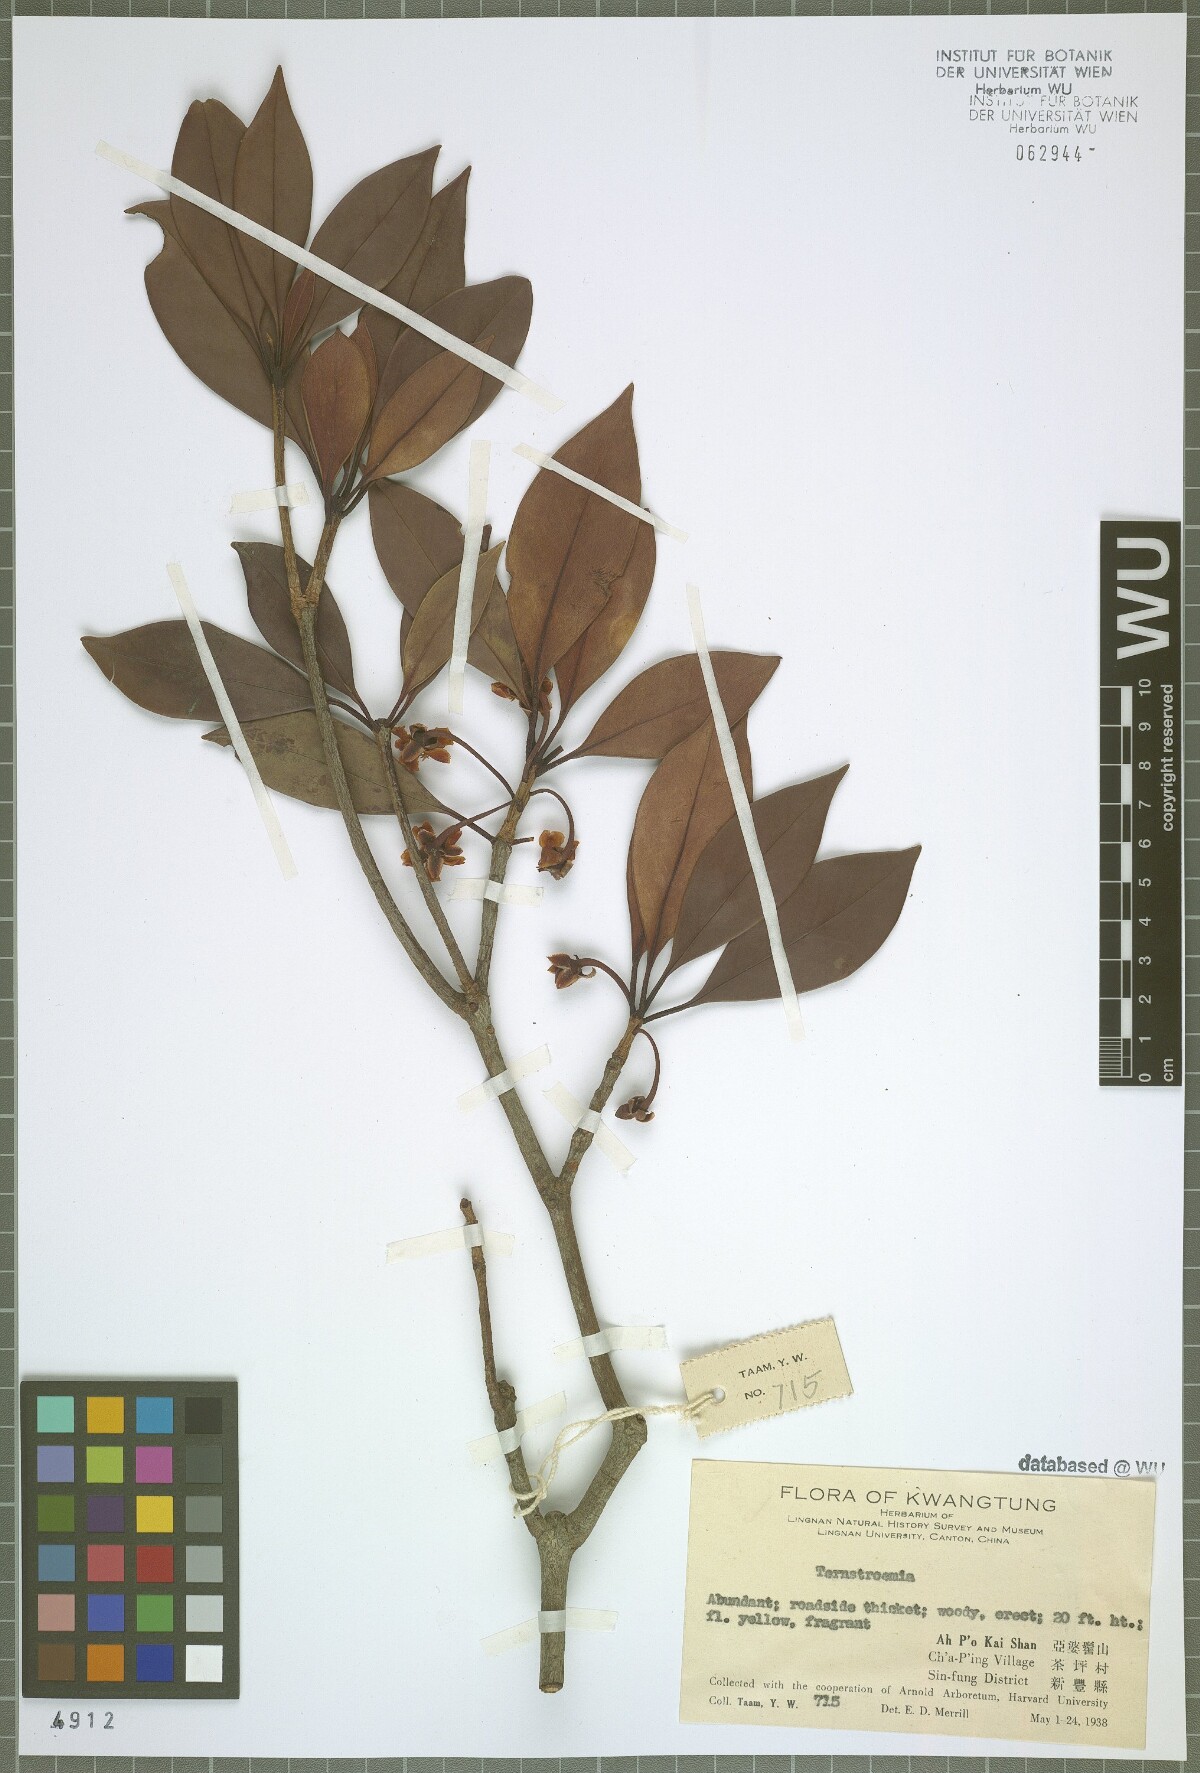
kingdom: Plantae
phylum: Tracheophyta
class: Magnoliopsida
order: Ericales
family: Pentaphylacaceae
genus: Ternstroemia
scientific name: Ternstroemia
